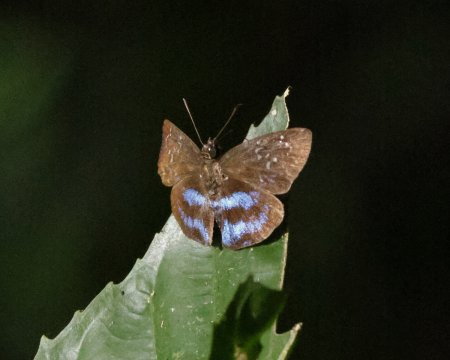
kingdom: Animalia
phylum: Arthropoda
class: Insecta
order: Lepidoptera
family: Hesperiidae
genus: Quadrus
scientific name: Quadrus contubernalis
